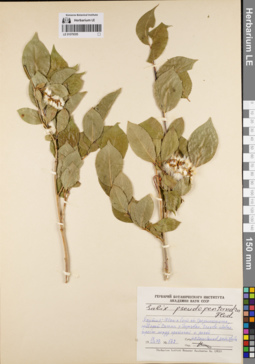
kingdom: Plantae
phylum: Tracheophyta
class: Magnoliopsida
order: Malpighiales
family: Salicaceae
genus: Salix
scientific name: Salix pseudopentandra
